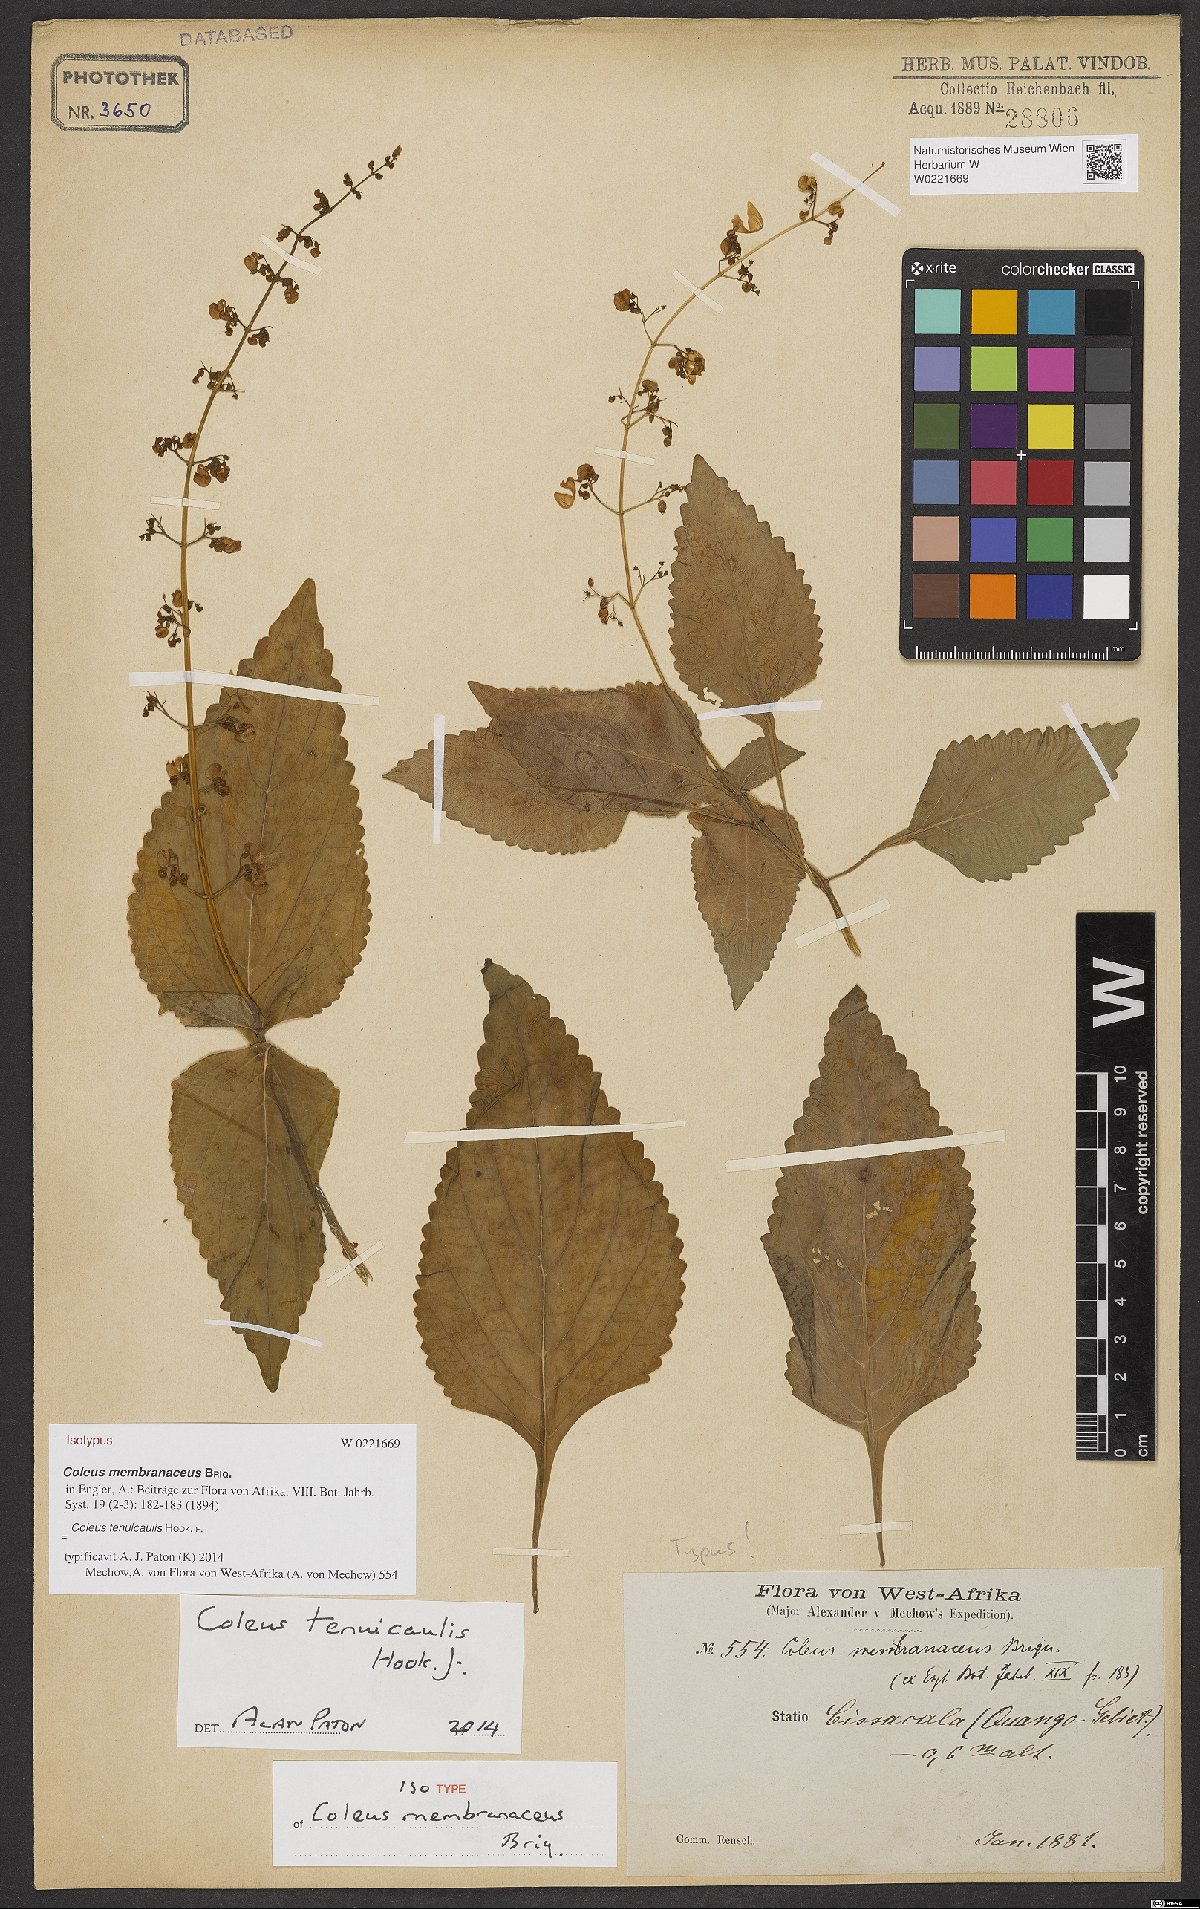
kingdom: Plantae
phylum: Tracheophyta
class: Magnoliopsida
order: Lamiales
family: Lamiaceae
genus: Coleus
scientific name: Coleus tenuicaulis
